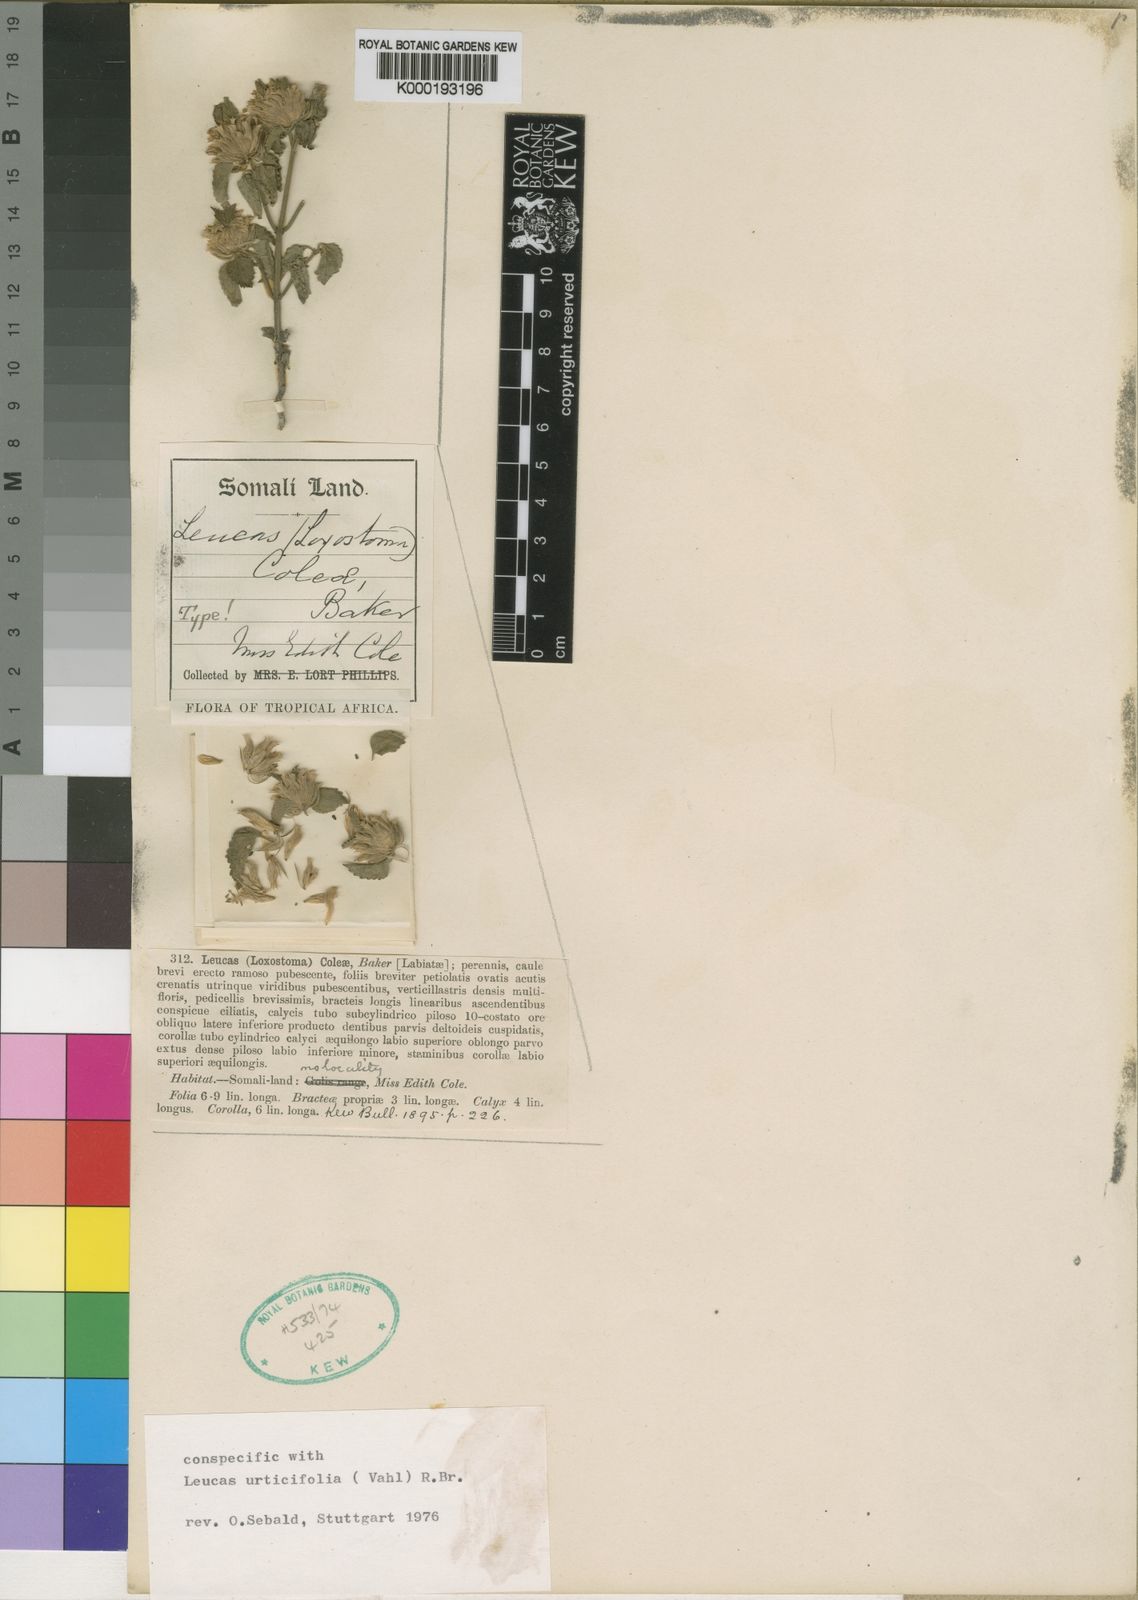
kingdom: Plantae
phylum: Tracheophyta
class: Magnoliopsida
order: Lamiales
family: Lamiaceae
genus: Leucas
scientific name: Leucas urticifolia
